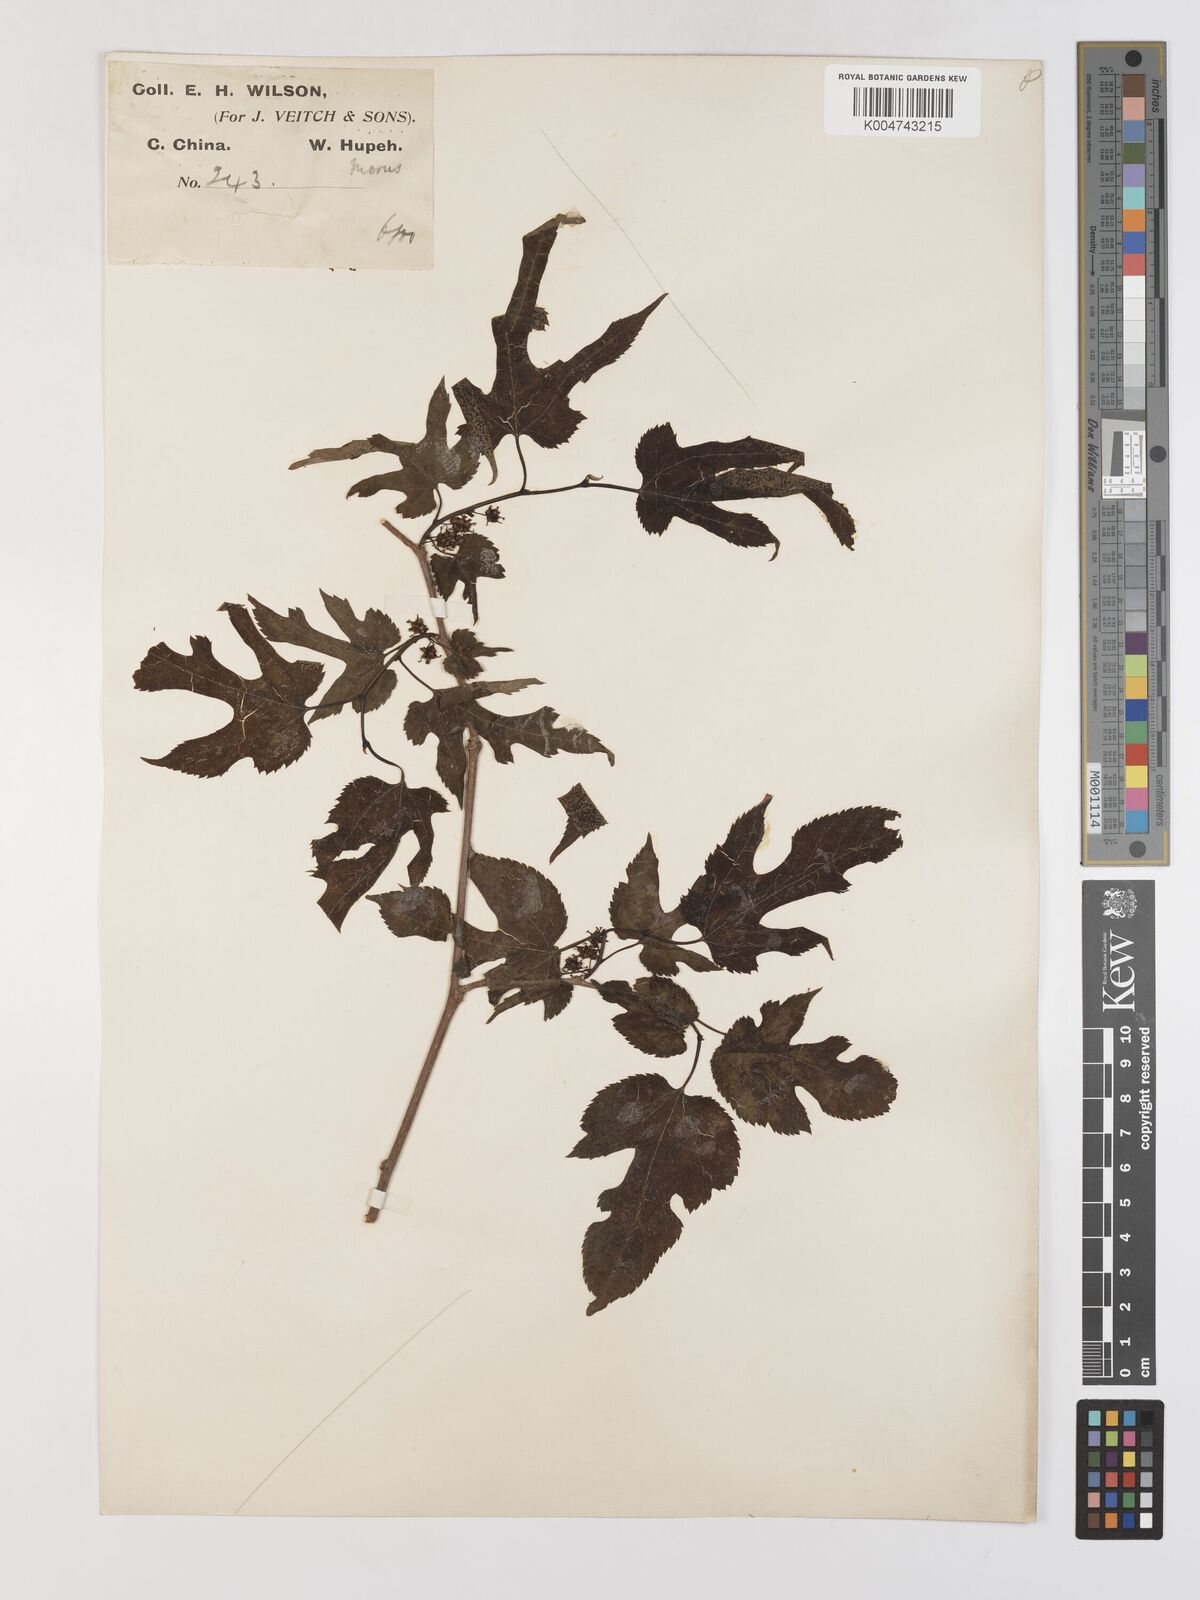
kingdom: Plantae
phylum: Tracheophyta
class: Magnoliopsida
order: Rosales
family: Moraceae
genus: Morus
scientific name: Morus indica
